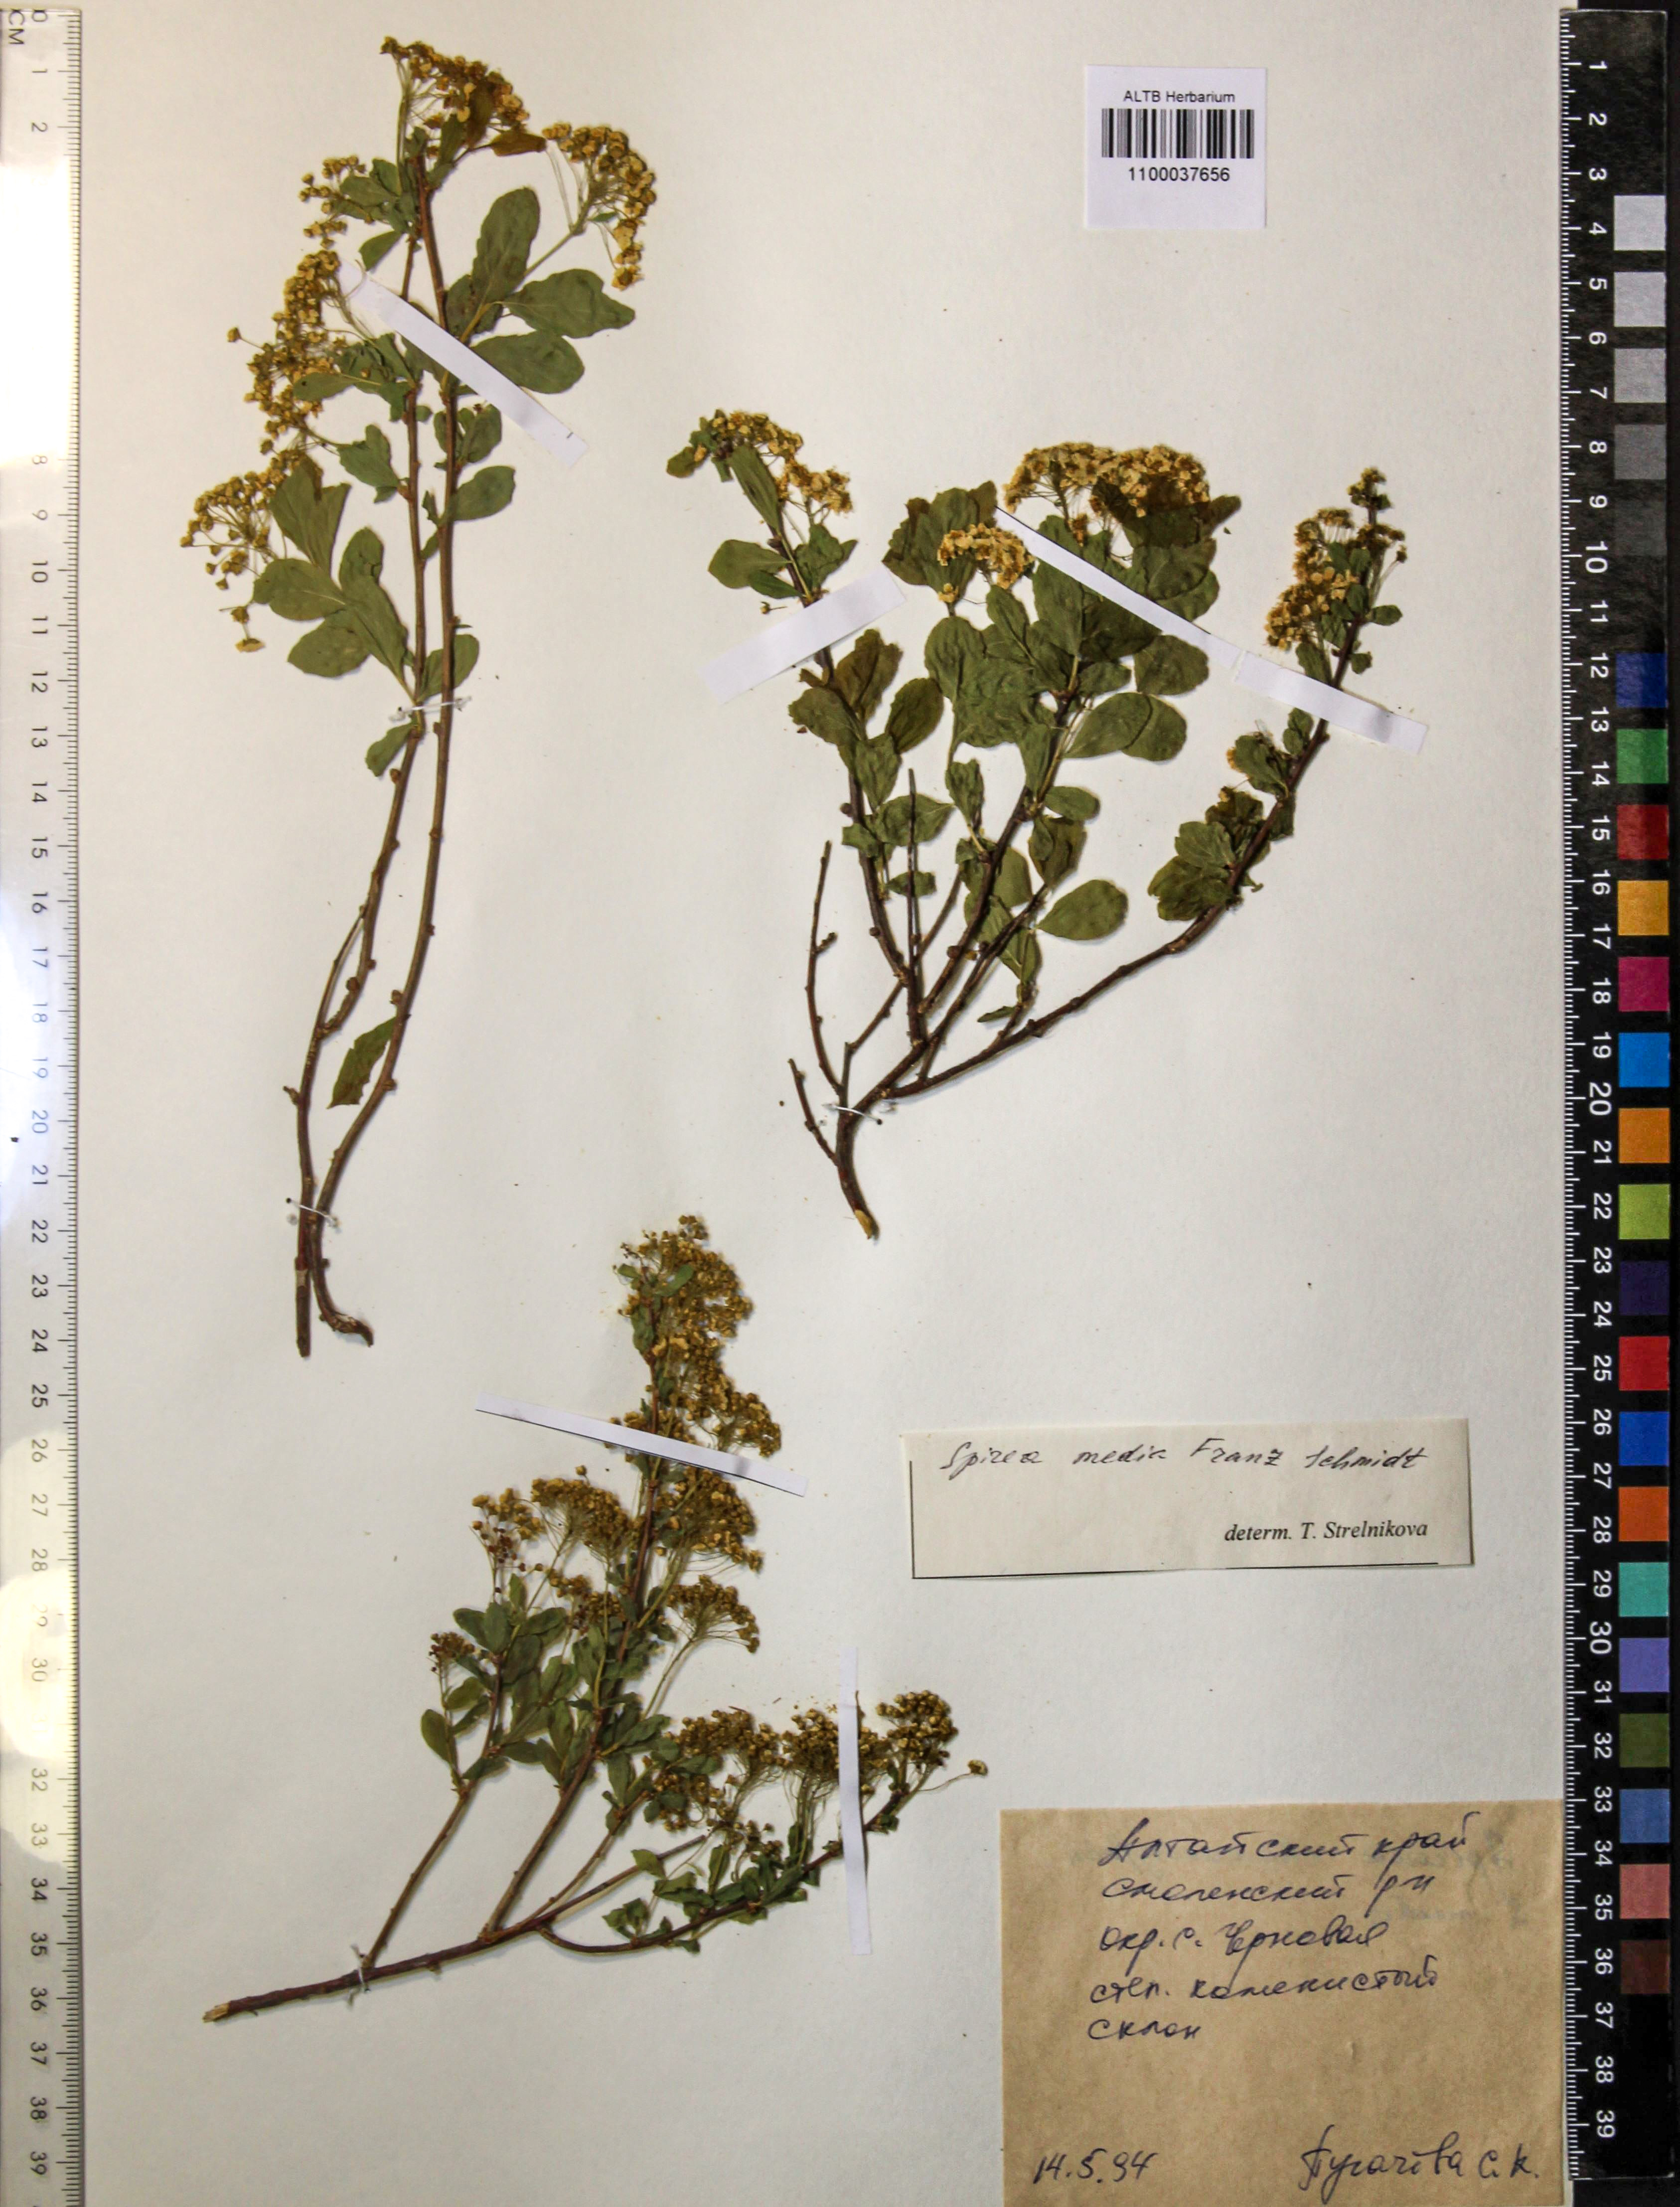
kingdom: Plantae
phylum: Tracheophyta
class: Magnoliopsida
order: Rosales
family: Rosaceae
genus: Spiraea
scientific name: Spiraea media
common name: Russian spiraea
